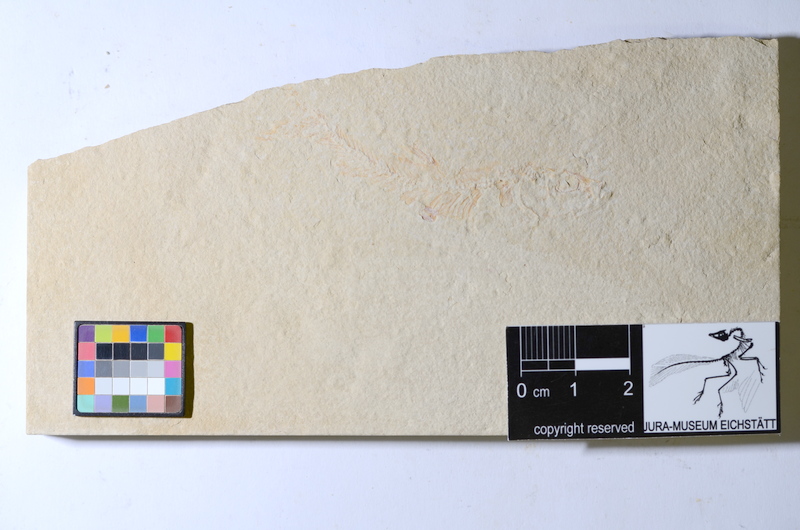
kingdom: Animalia
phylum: Chordata
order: Salmoniformes
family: Orthogonikleithridae
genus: Leptolepides
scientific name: Leptolepides
